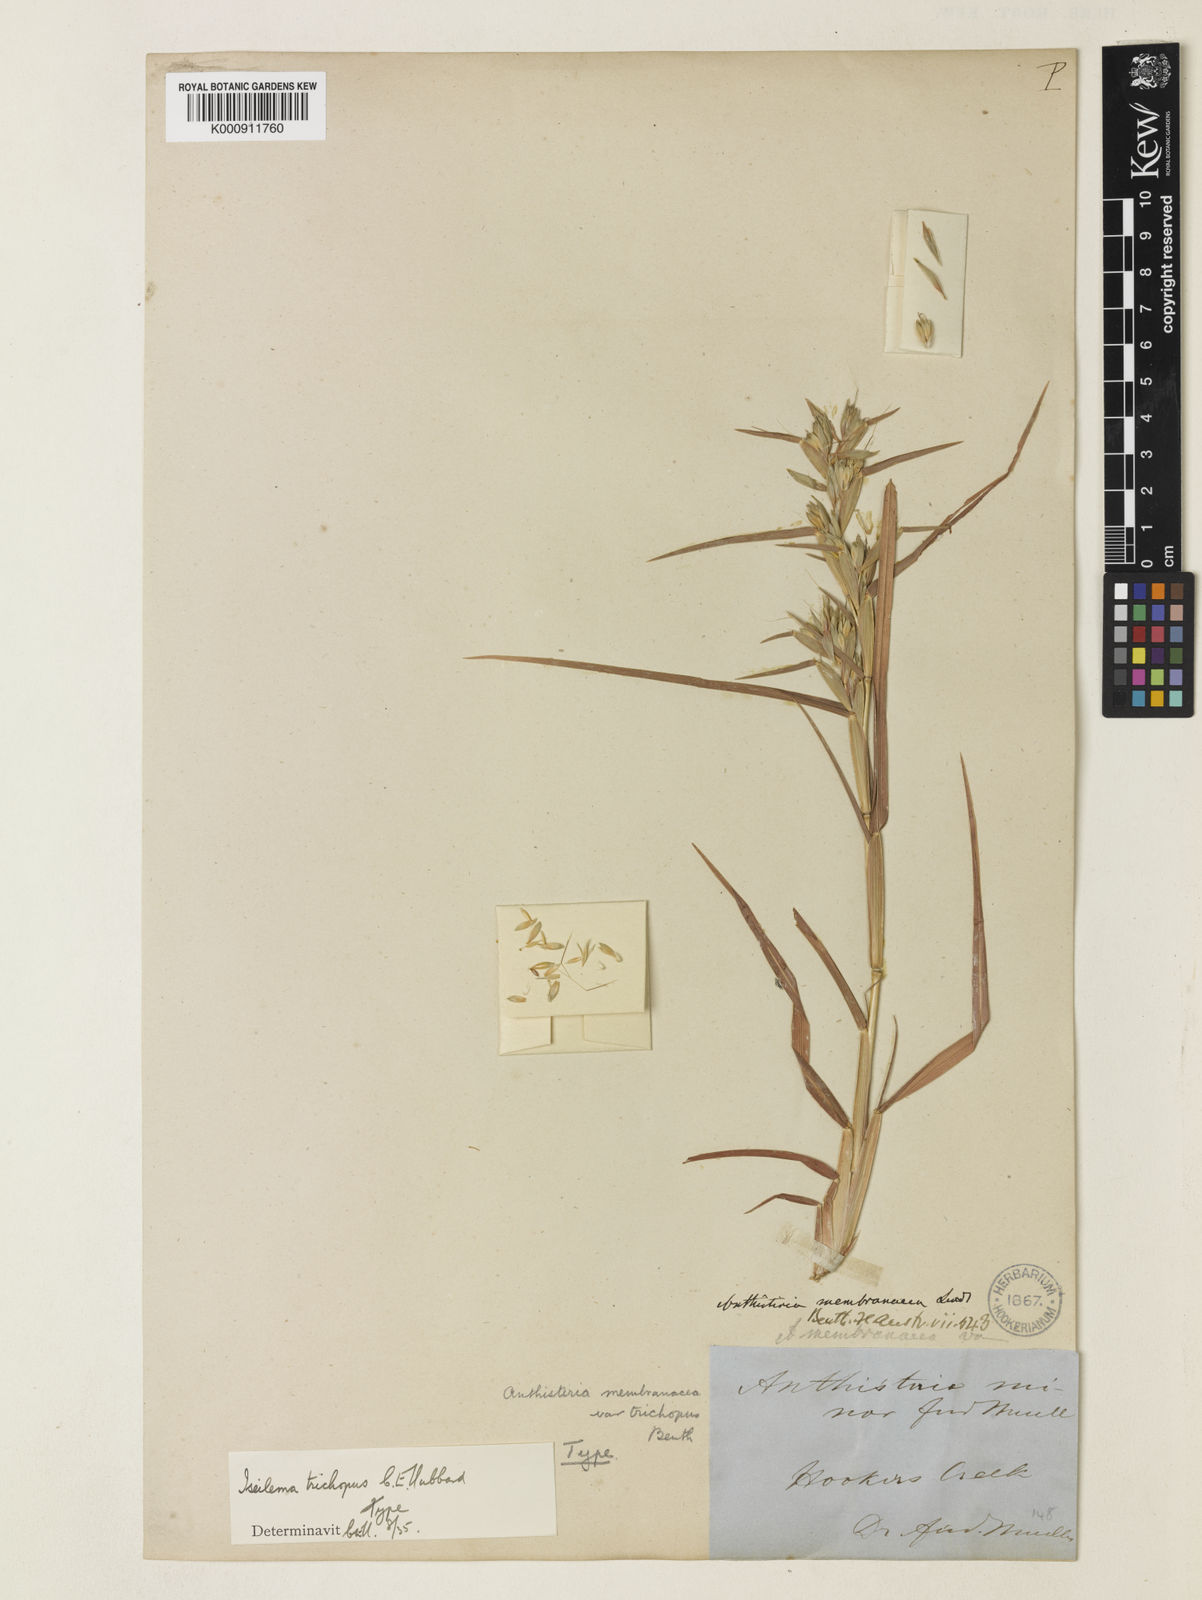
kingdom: Plantae
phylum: Tracheophyta
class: Liliopsida
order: Poales
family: Poaceae
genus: Iseilema
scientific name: Iseilema trichopus
